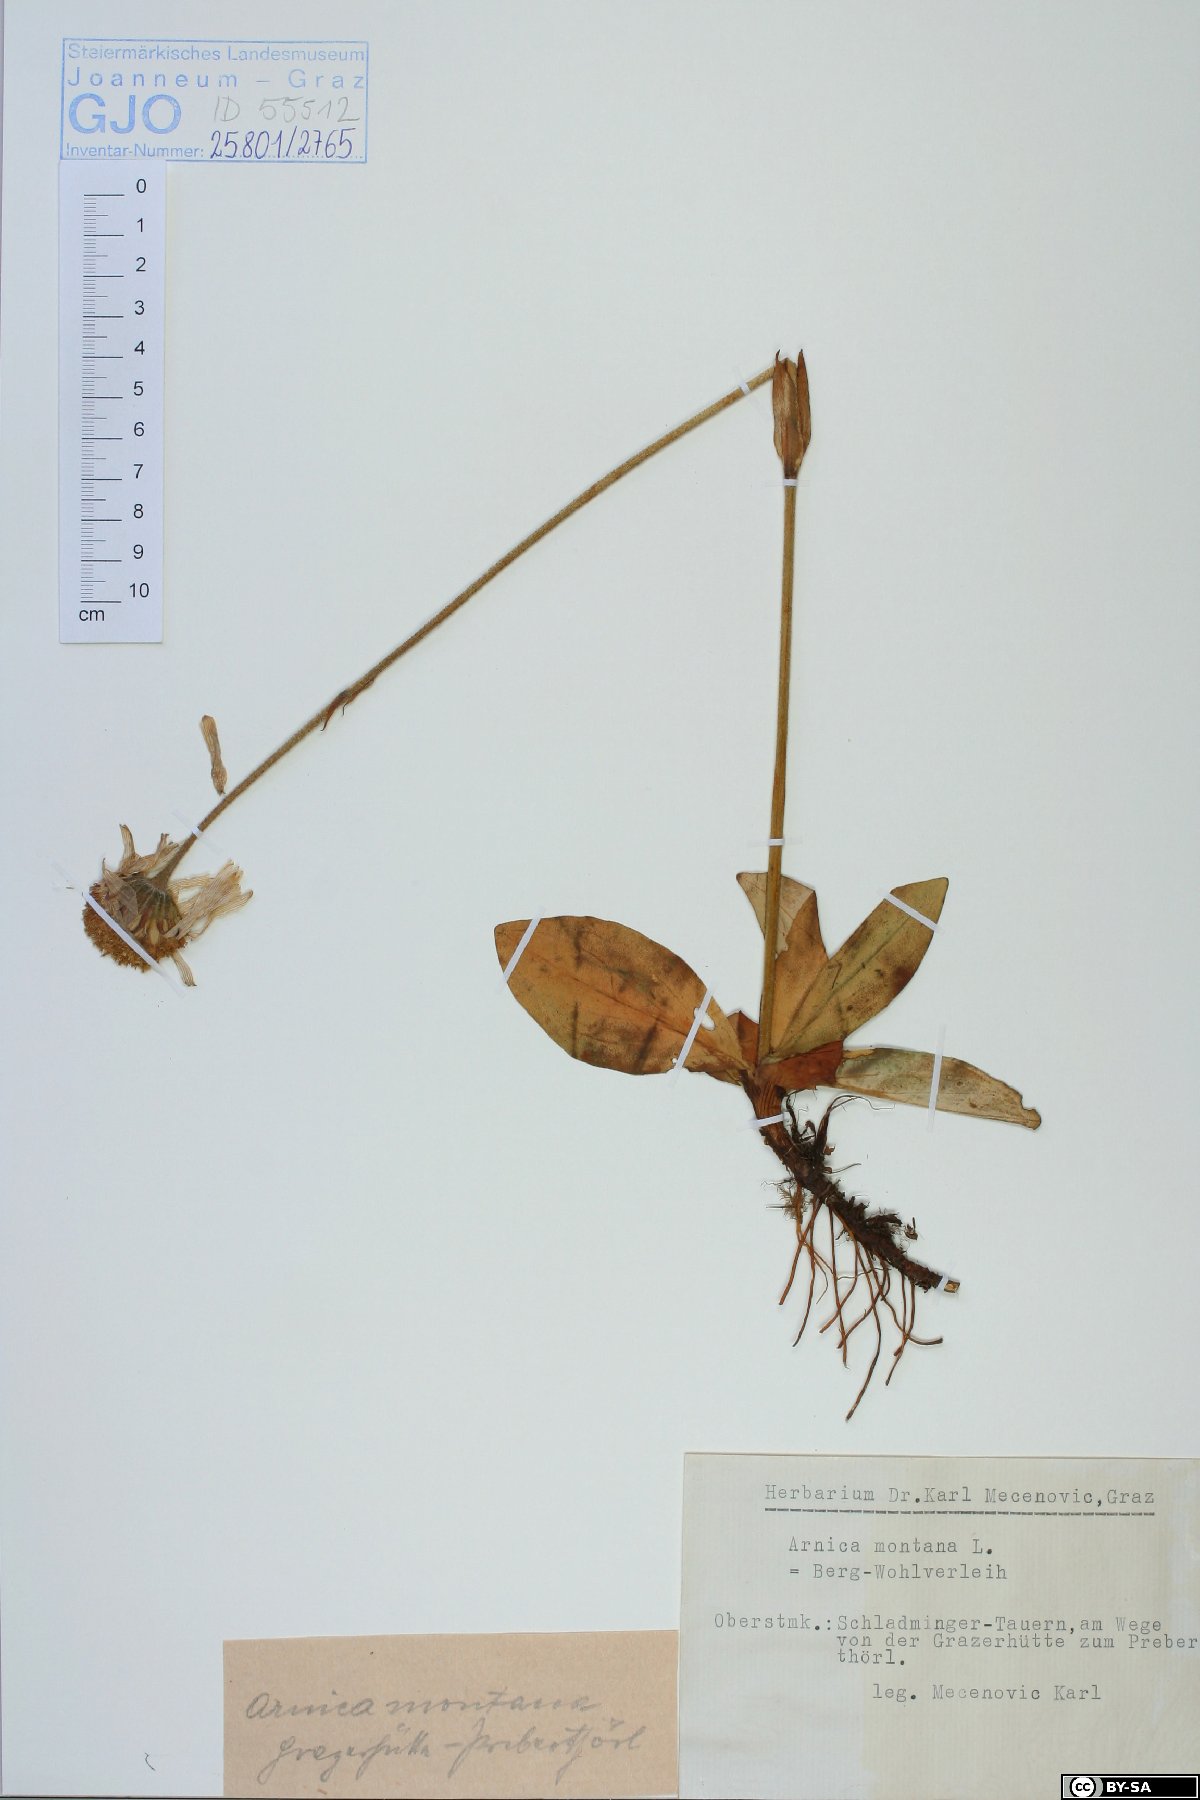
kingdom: Plantae
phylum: Tracheophyta
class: Magnoliopsida
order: Asterales
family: Asteraceae
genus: Arnica
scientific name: Arnica montana
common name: Leopard's bane
